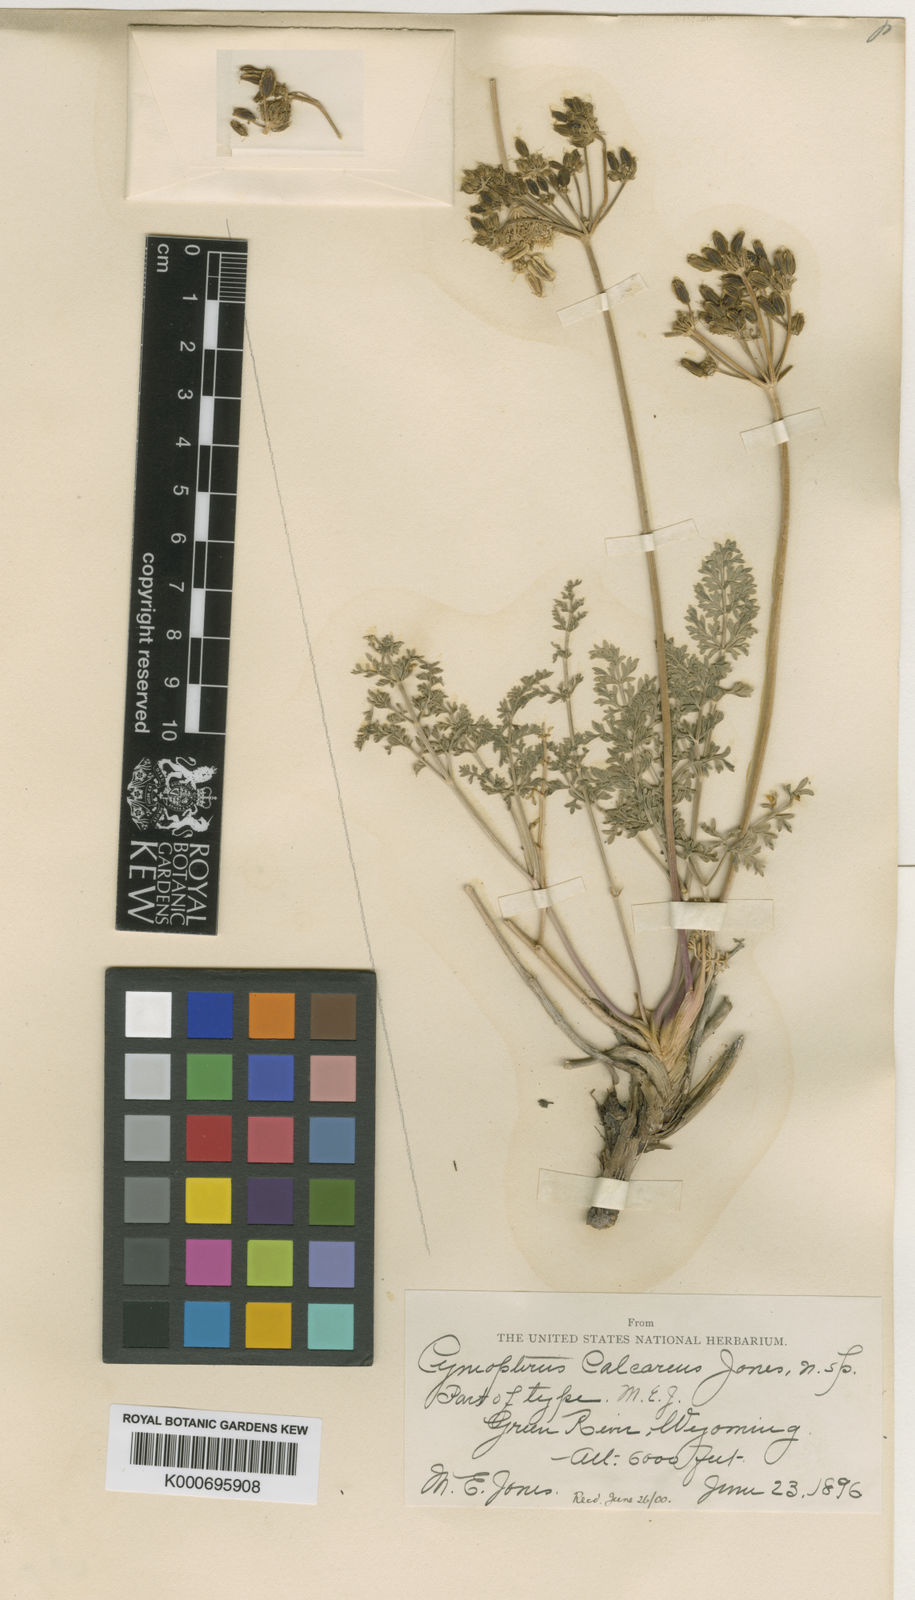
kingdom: Plantae
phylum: Tracheophyta
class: Magnoliopsida
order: Apiales
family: Apiaceae
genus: Pteryxia
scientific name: Pteryxia terebinthina
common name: Turpentine wavewing
